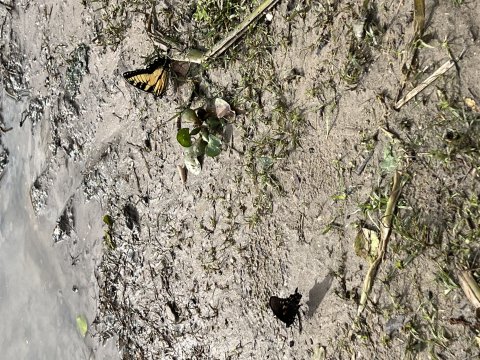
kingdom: Animalia
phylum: Arthropoda
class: Insecta
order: Lepidoptera
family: Papilionidae
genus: Battus
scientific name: Battus philenor
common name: Pipevine Swallowtail
